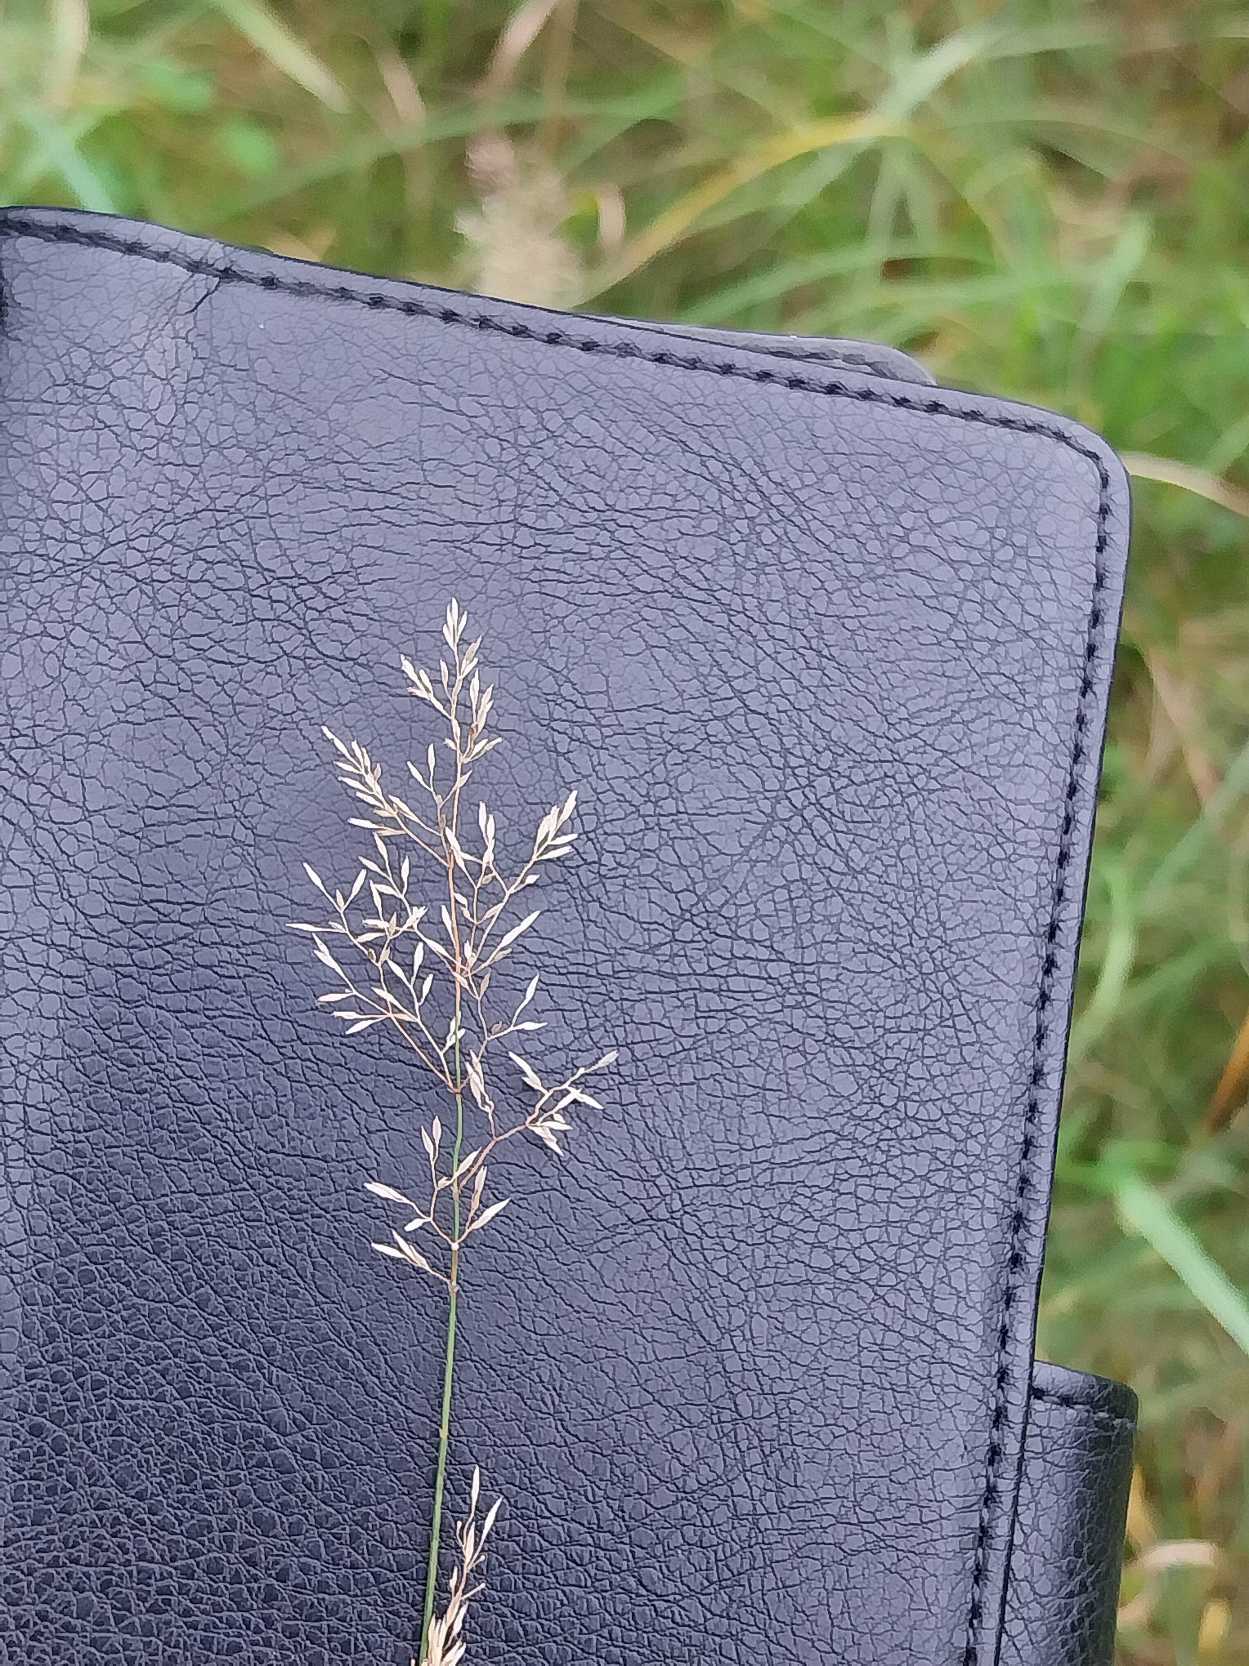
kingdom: Plantae
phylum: Tracheophyta
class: Liliopsida
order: Poales
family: Poaceae
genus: Agrostis
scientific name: Agrostis capillaris
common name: Almindelig hvene
